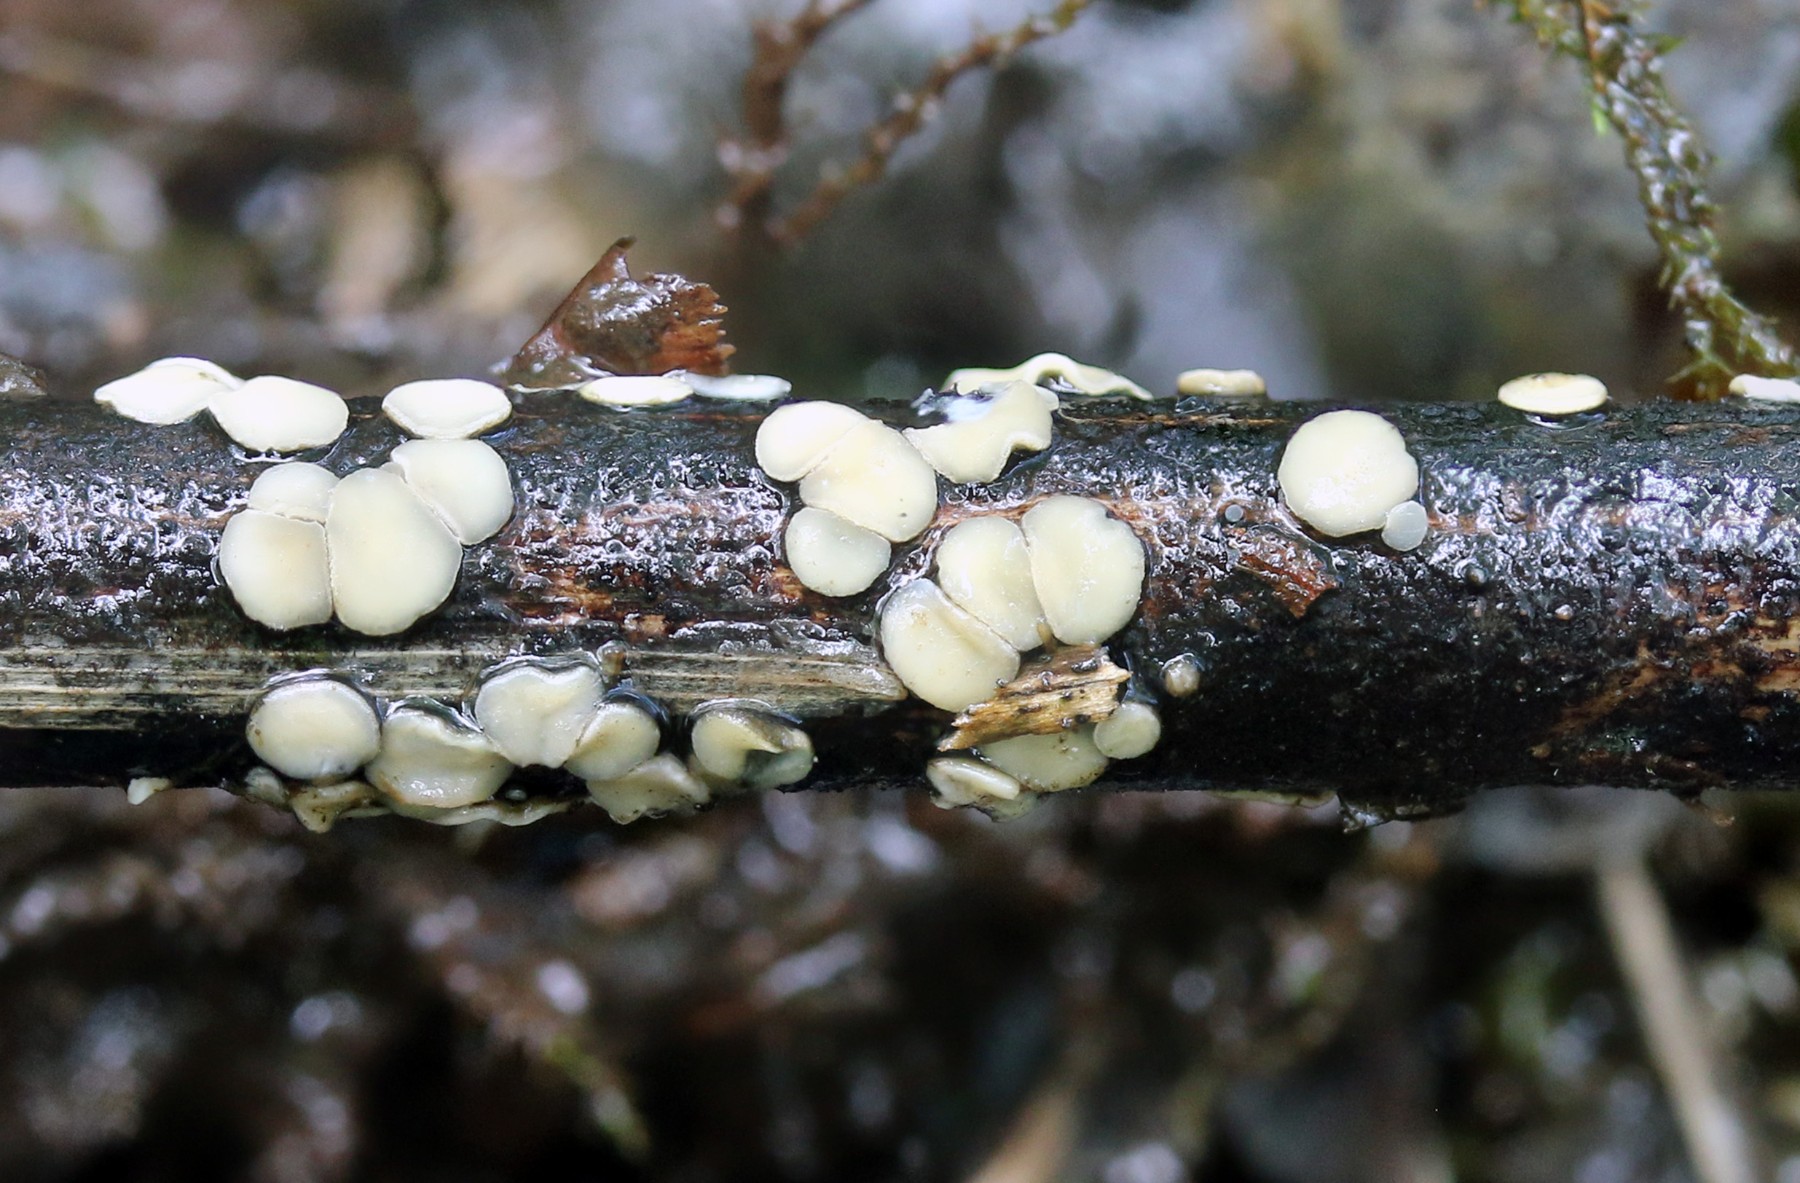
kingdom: Fungi
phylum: Ascomycota
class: Leotiomycetes
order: Helotiales
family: Mollisiaceae
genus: Trichobelonium
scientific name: Trichobelonium kneiffii
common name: tagrør-gråskive
